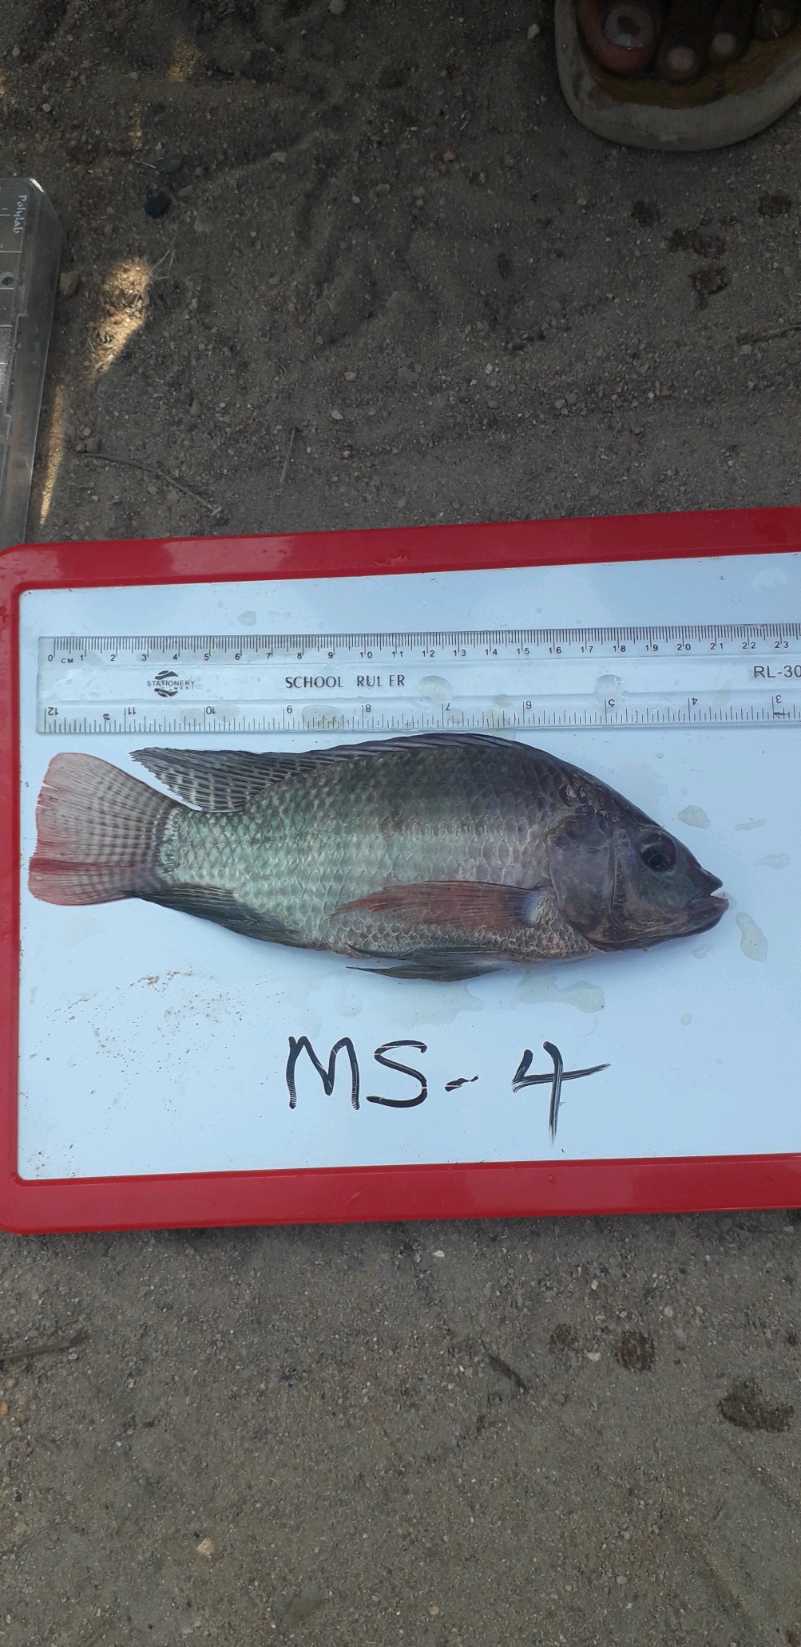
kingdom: Animalia
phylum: Chordata
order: Perciformes
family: Cichlidae
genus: Oreochromis
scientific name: Oreochromis niloticus
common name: Nile tilapia
